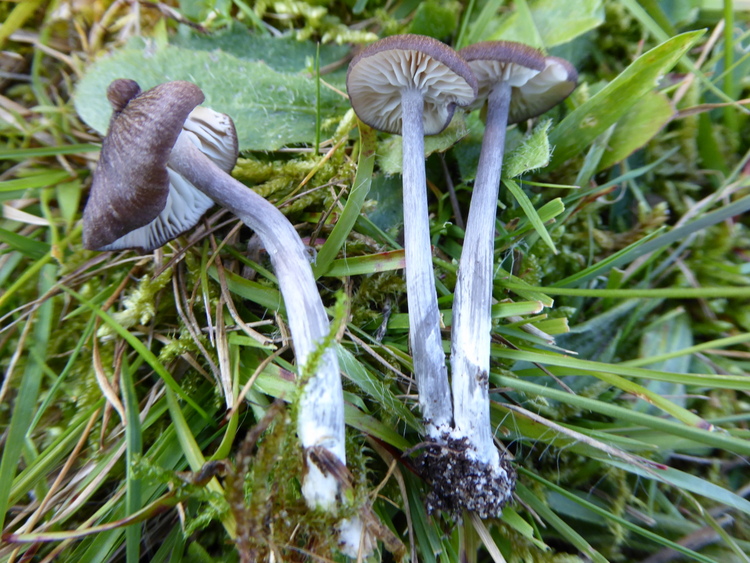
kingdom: Fungi
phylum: Basidiomycota
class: Agaricomycetes
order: Agaricales
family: Entolomataceae
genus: Entoloma
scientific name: Entoloma viiduense
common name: purpurbrun rødblad
